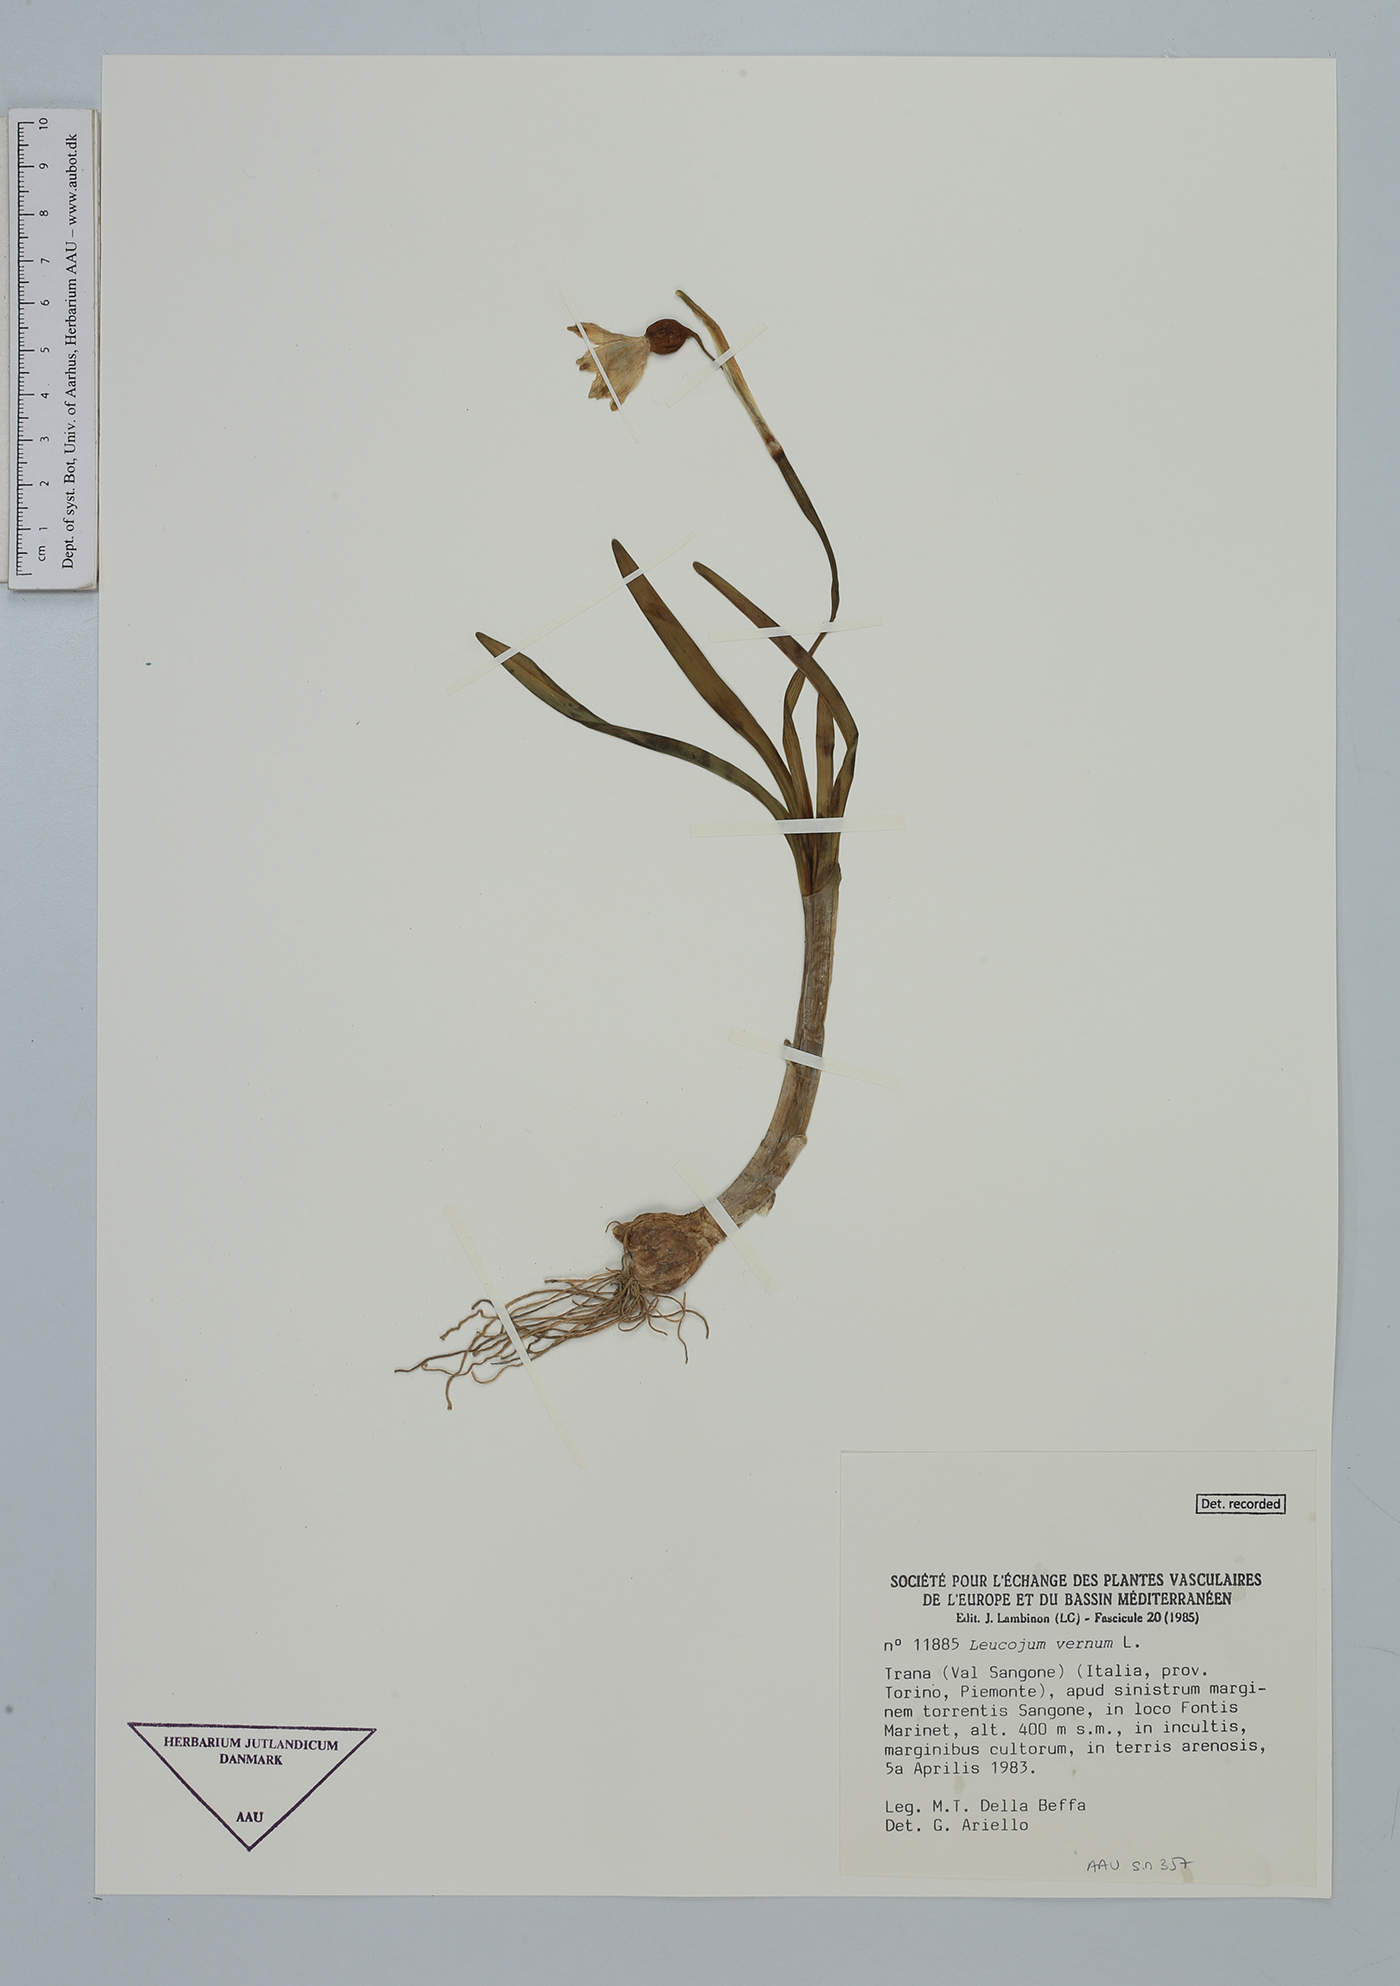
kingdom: Plantae
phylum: Tracheophyta
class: Liliopsida
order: Asparagales
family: Amaryllidaceae
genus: Leucojum
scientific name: Leucojum vernum
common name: Spring snowflake
